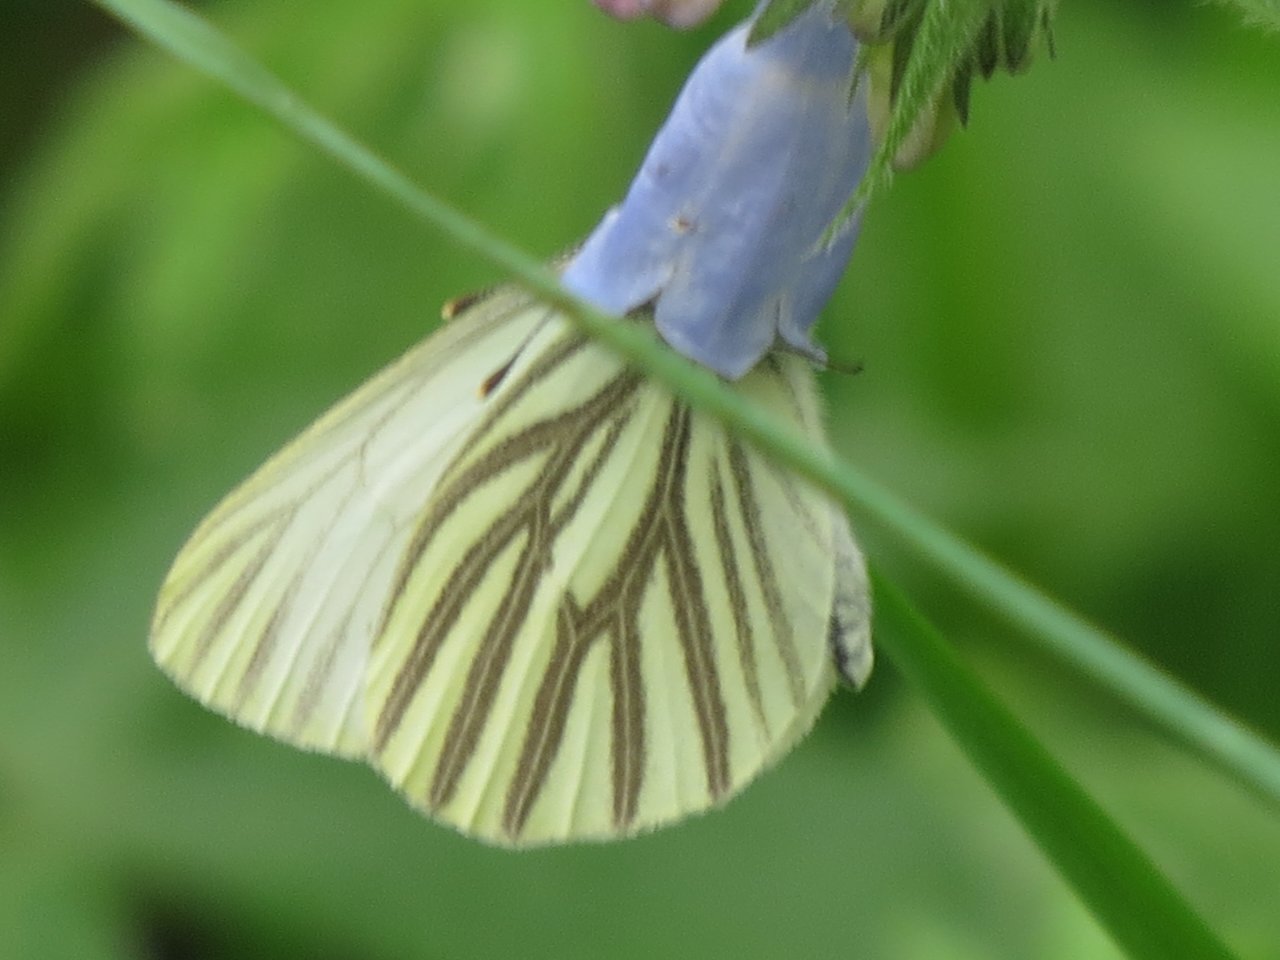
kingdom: Animalia
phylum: Arthropoda
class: Insecta
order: Lepidoptera
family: Pieridae
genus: Pieris
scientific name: Pieris oleracea
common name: Mustard White
